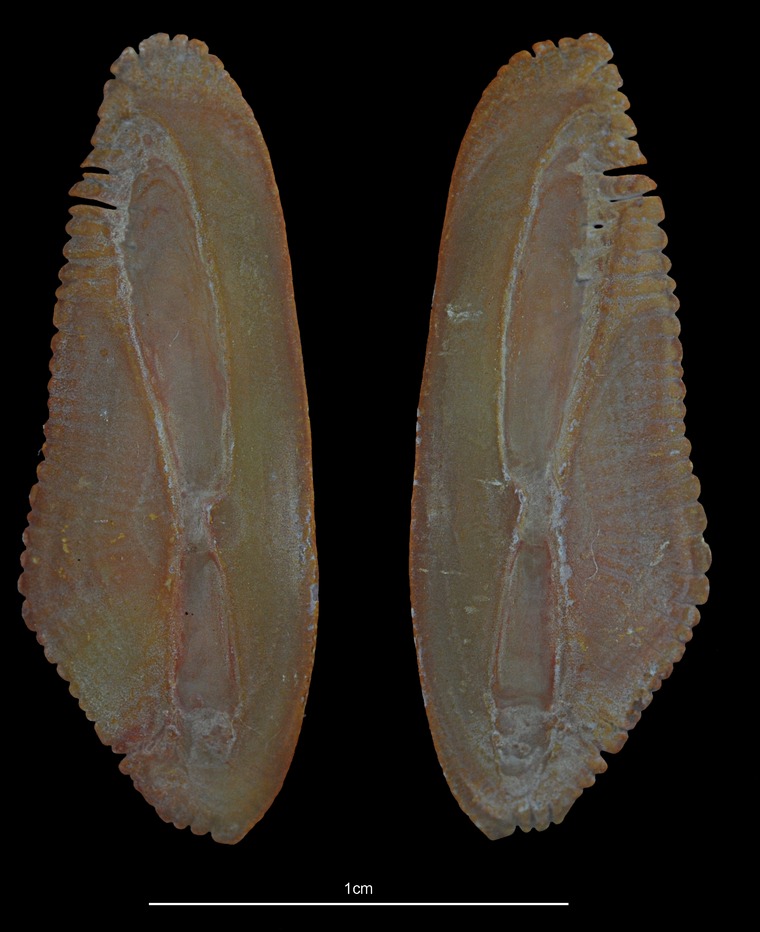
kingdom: Animalia
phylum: Chordata
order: Gadiformes
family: Gadidae
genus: Micromesistius
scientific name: Micromesistius poutassou
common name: Blue whiting
